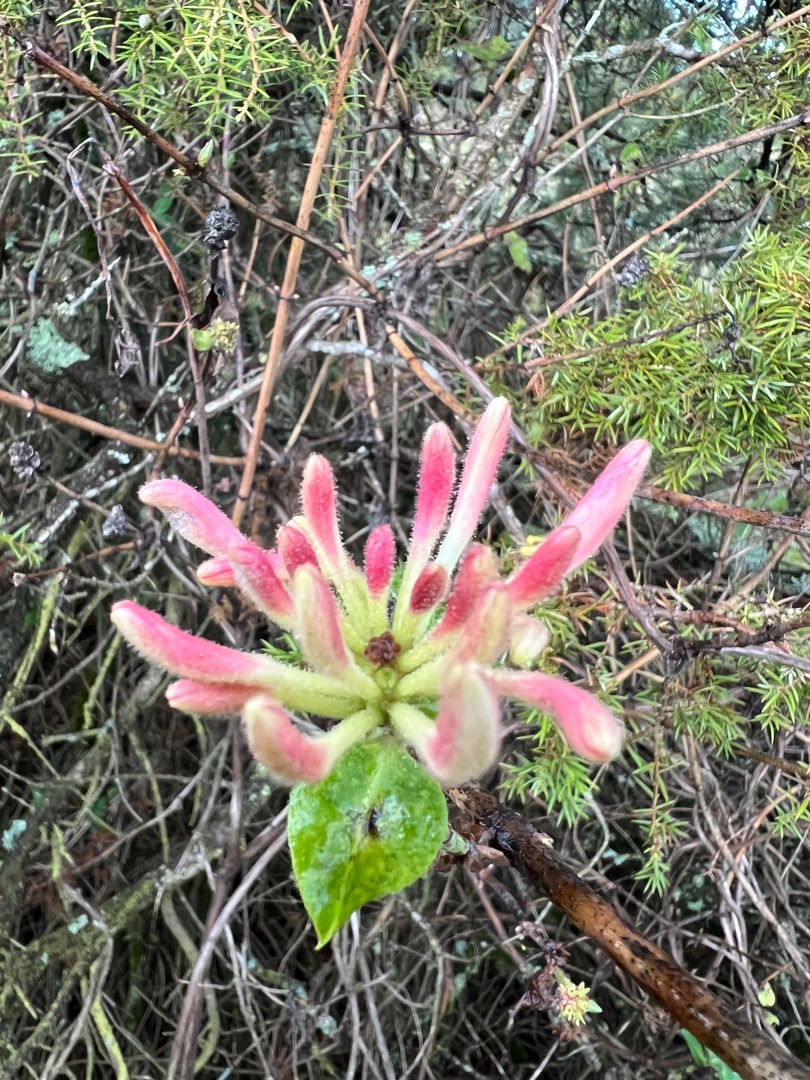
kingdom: Plantae
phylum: Tracheophyta
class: Magnoliopsida
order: Dipsacales
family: Caprifoliaceae
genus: Lonicera
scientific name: Lonicera periclymenum
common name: Almindelig gedeblad
